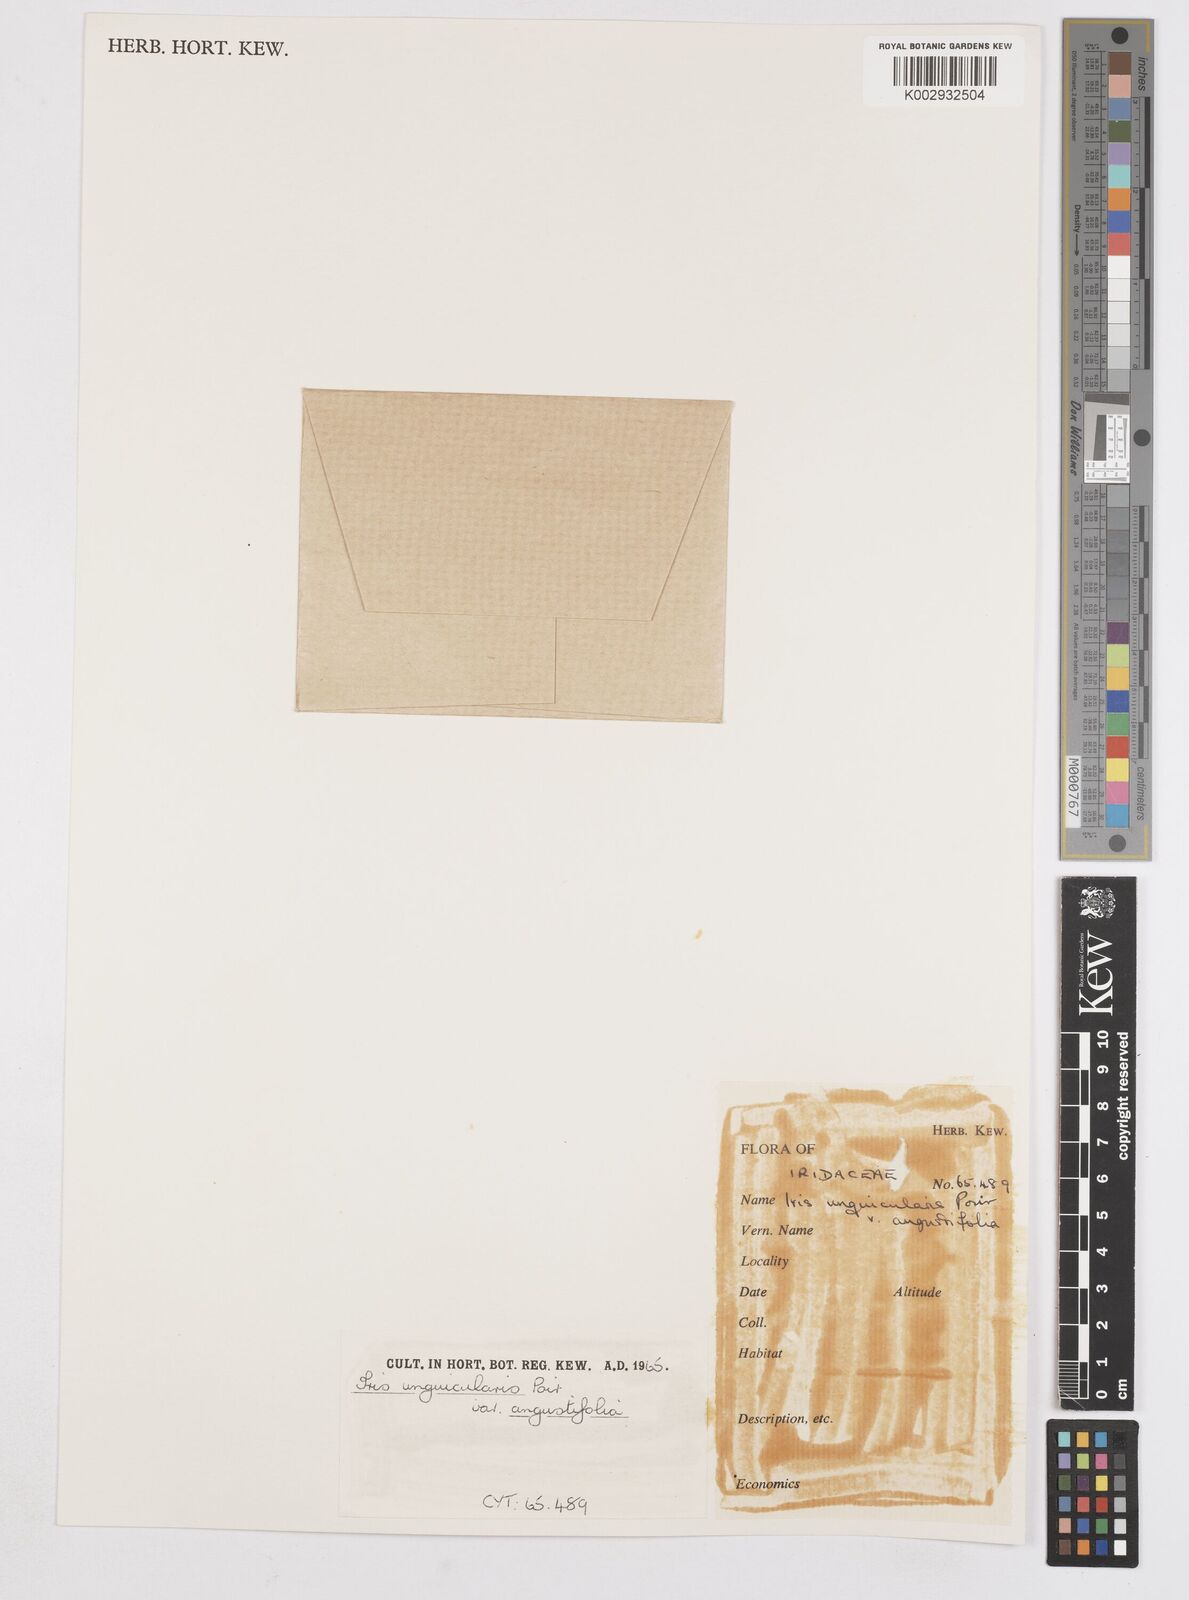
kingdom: Plantae
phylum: Tracheophyta
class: Liliopsida
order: Asparagales
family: Iridaceae
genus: Iris
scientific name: Iris unguicularis
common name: Algerian iris
